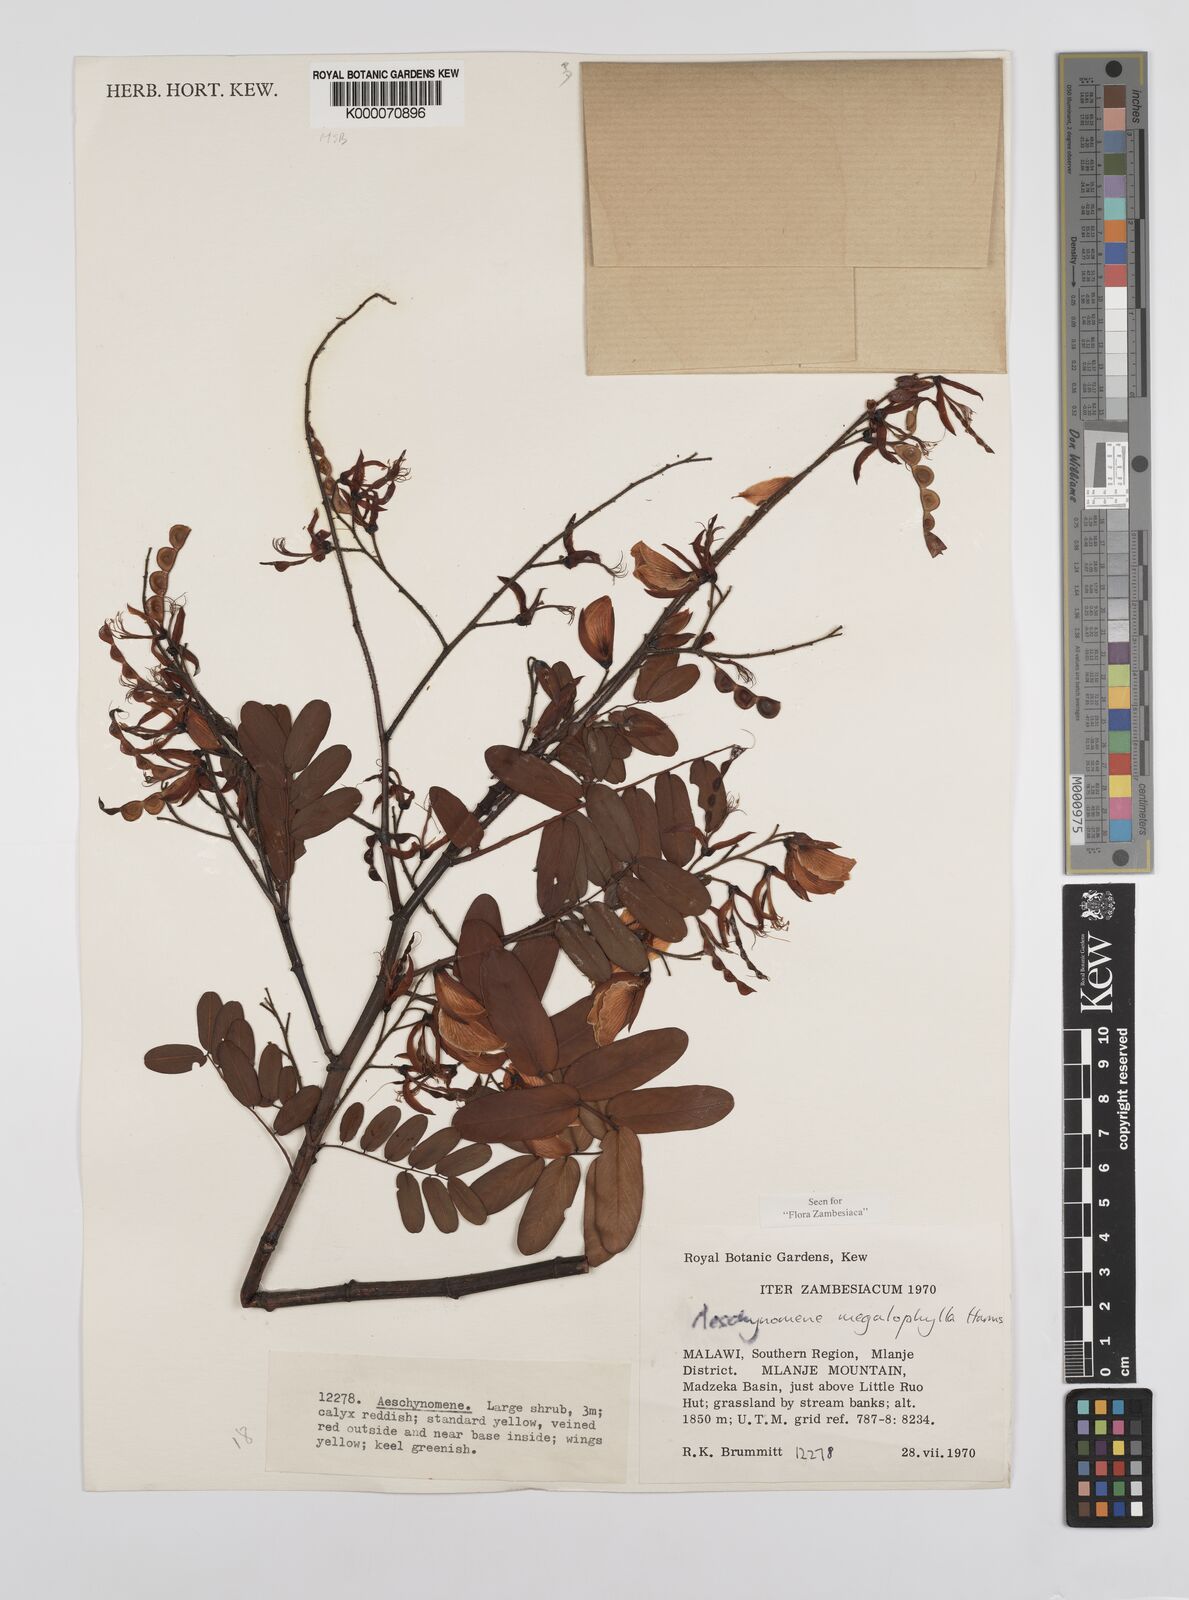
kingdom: Plantae
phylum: Tracheophyta
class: Magnoliopsida
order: Fabales
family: Fabaceae
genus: Aeschynomene
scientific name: Aeschynomene megalophylla
